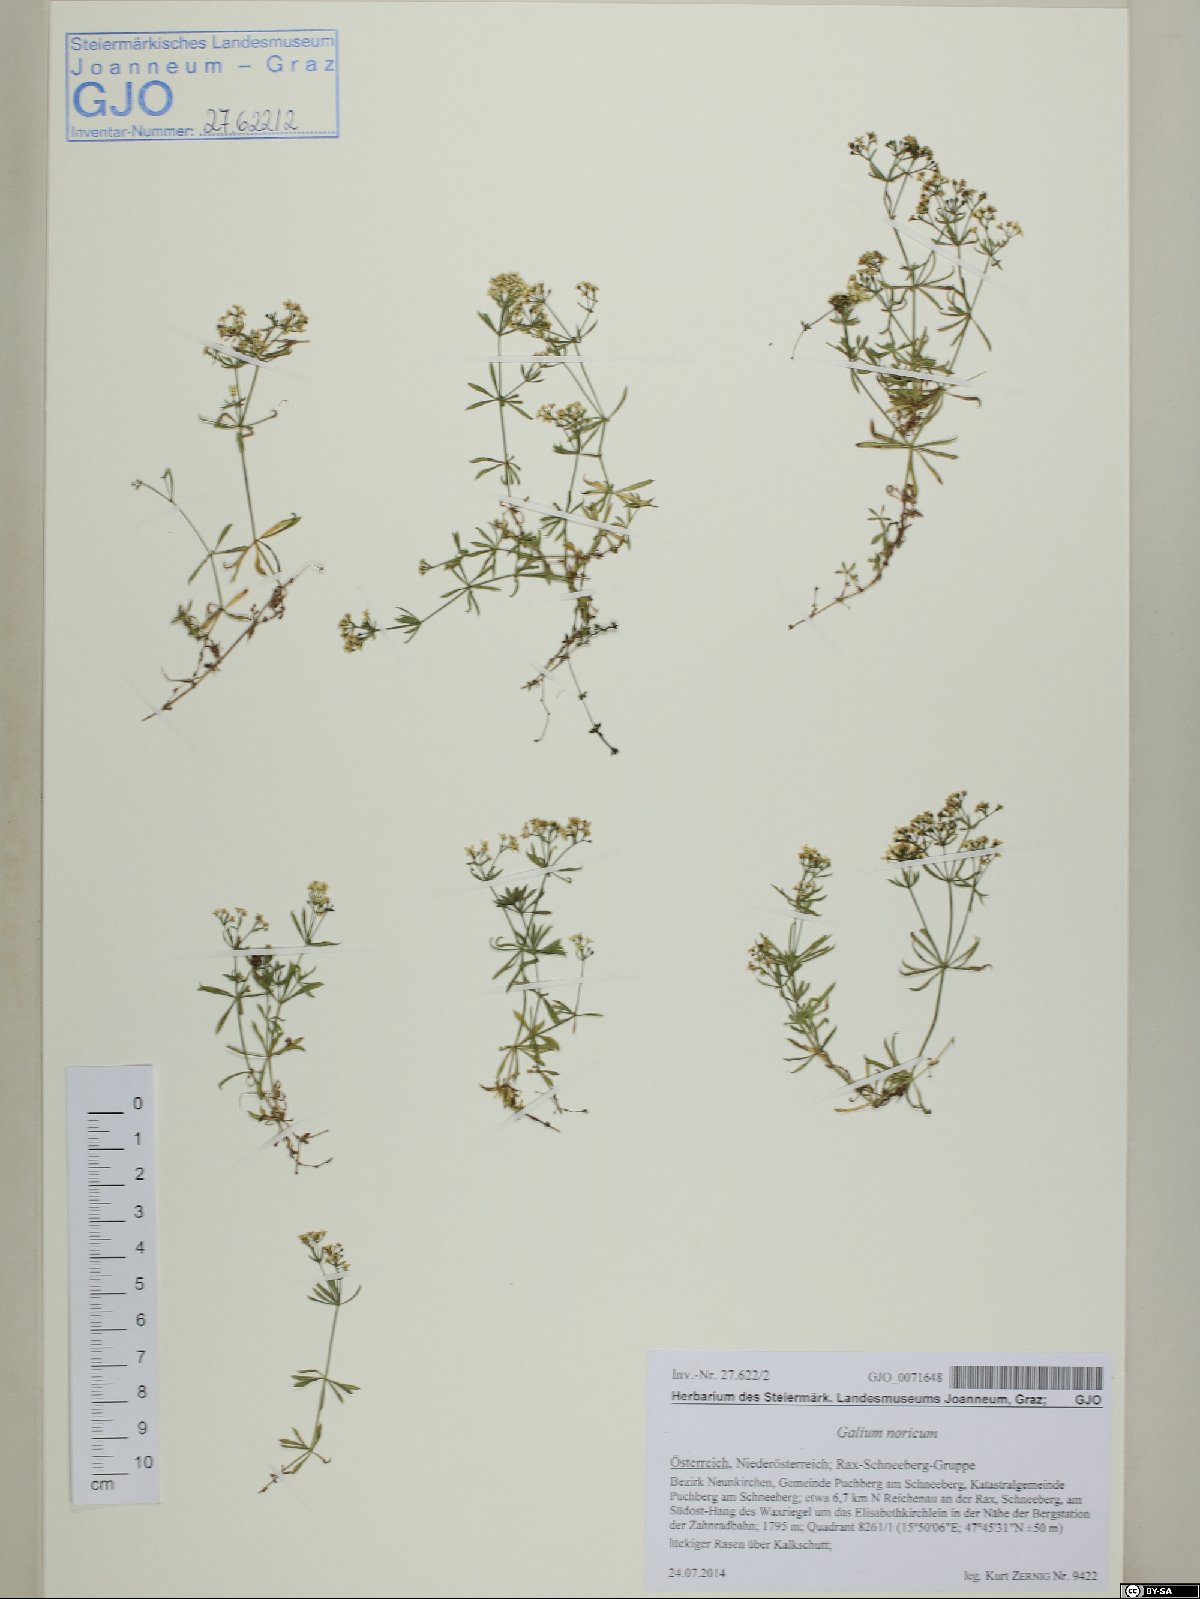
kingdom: Plantae
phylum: Tracheophyta
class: Magnoliopsida
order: Gentianales
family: Rubiaceae
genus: Galium
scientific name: Galium meliodorum
